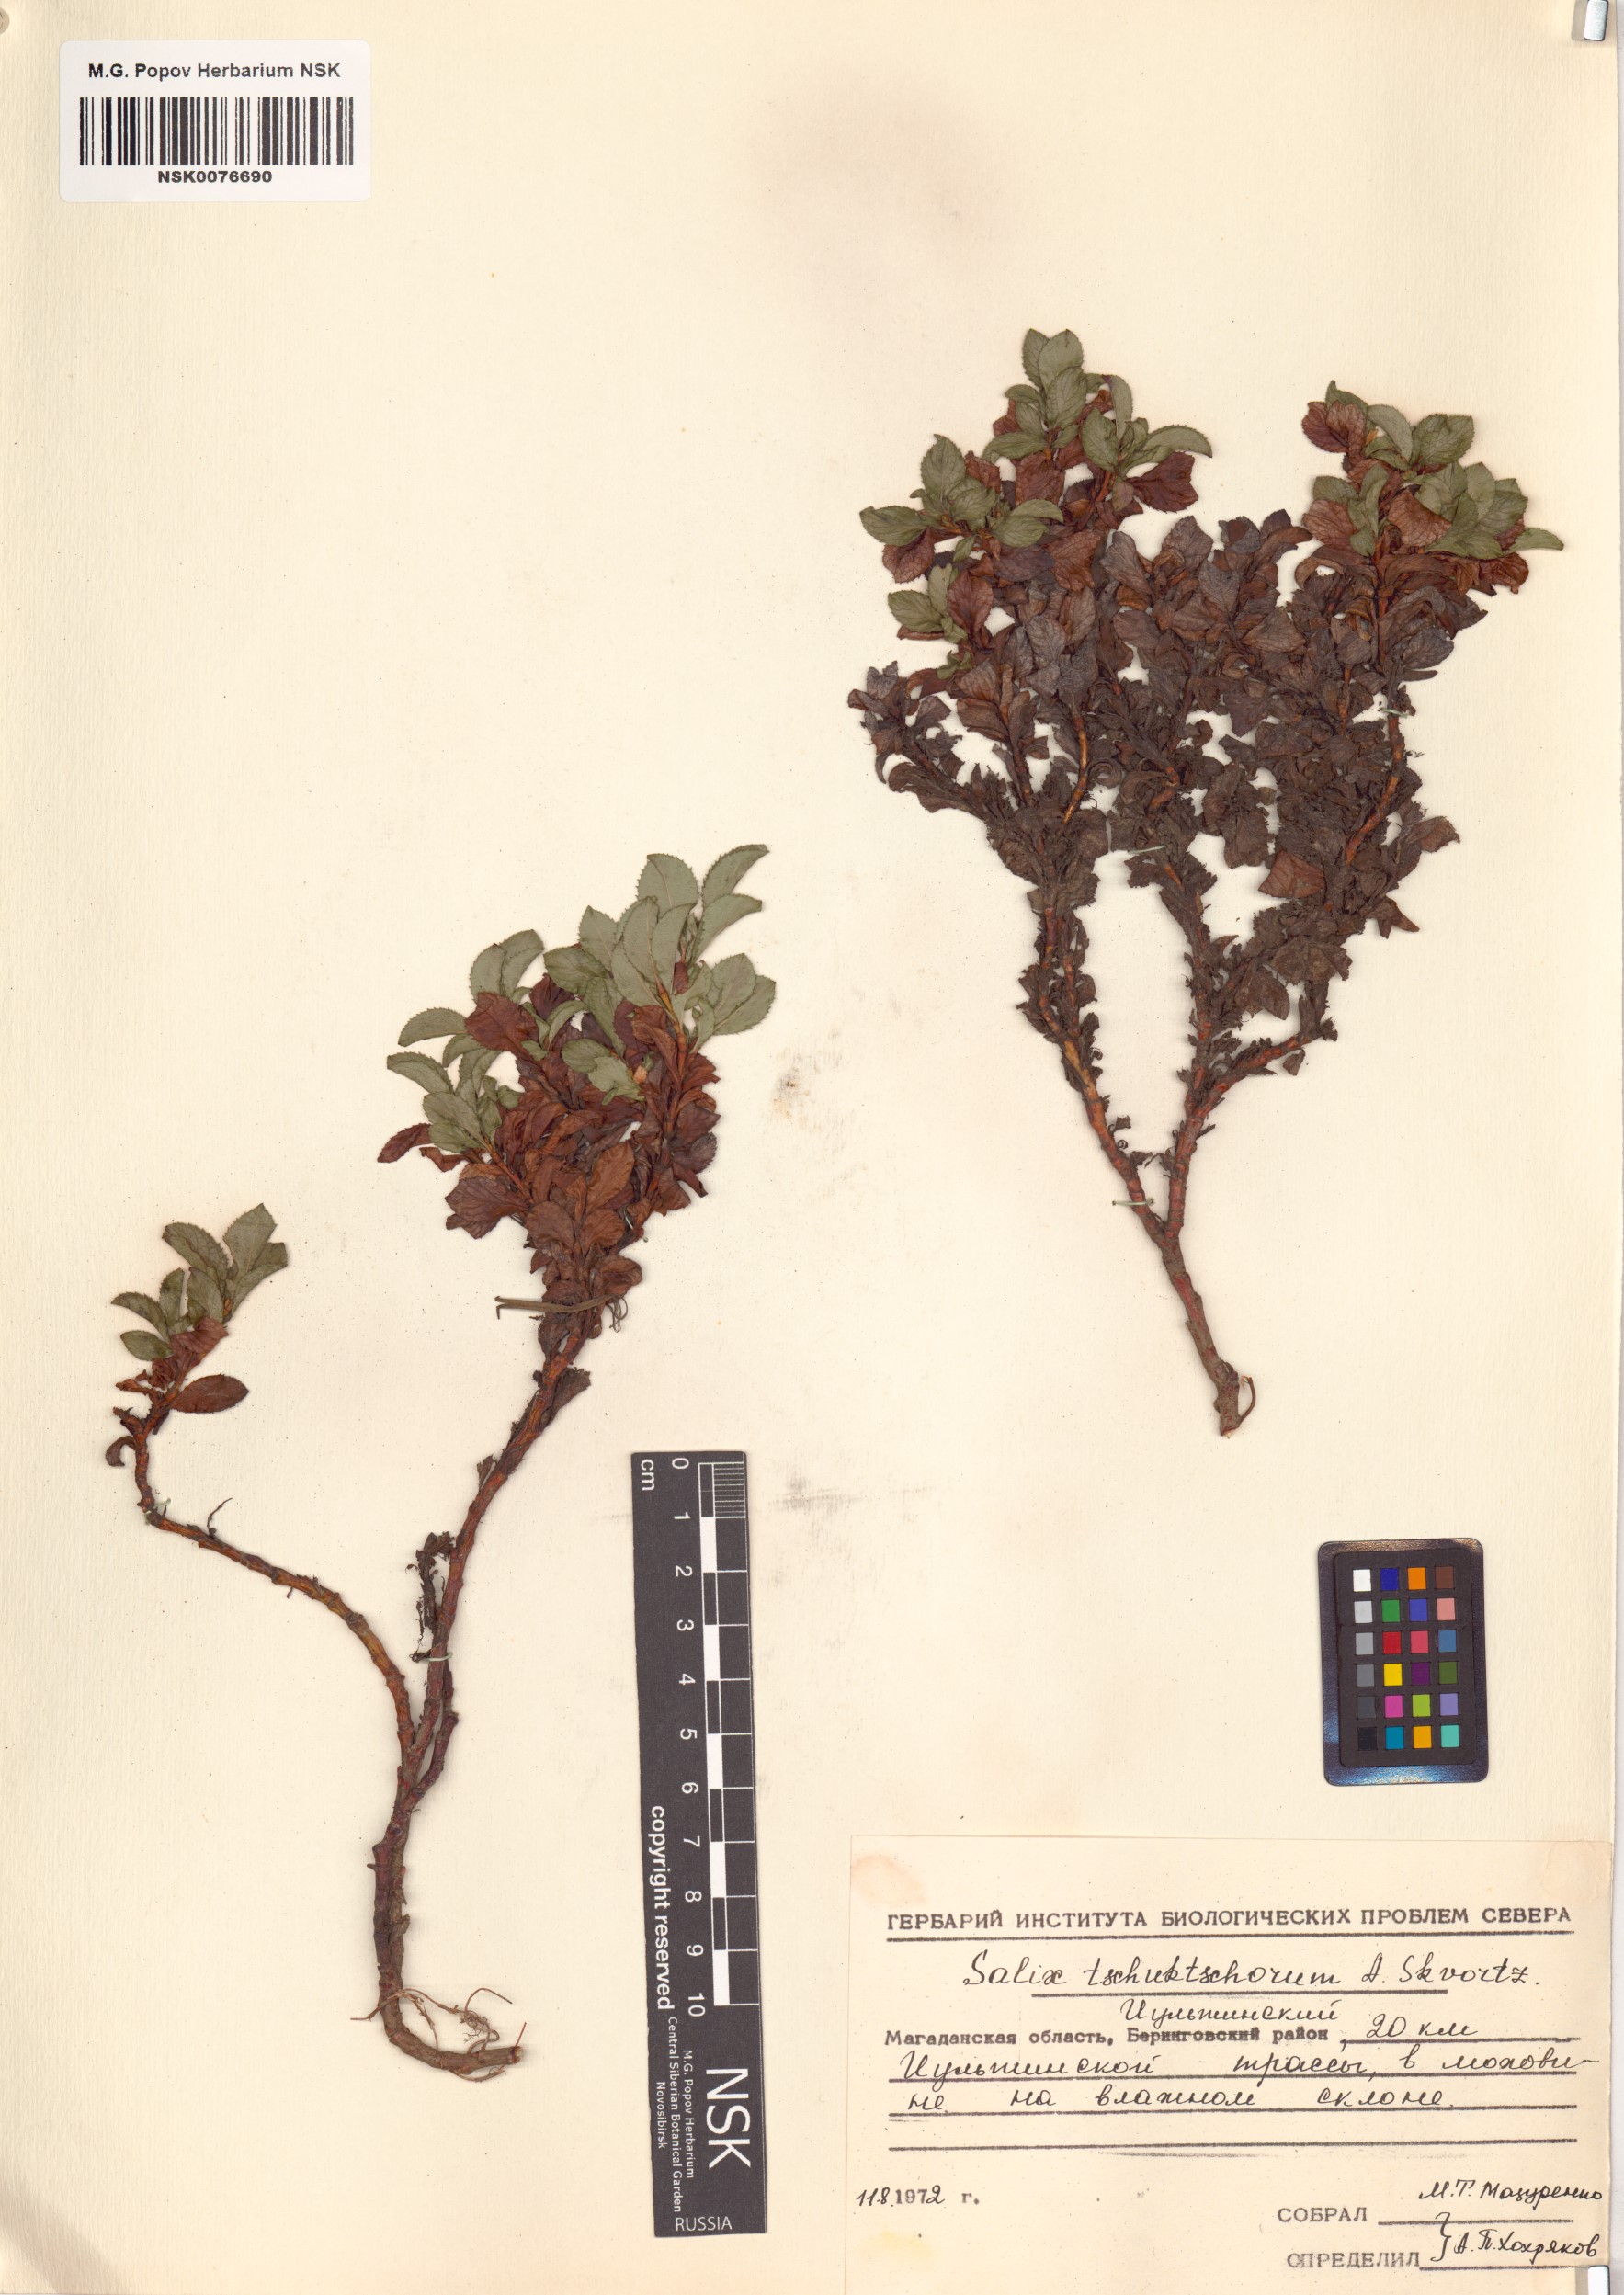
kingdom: Plantae
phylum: Tracheophyta
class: Magnoliopsida
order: Malpighiales
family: Salicaceae
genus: Salix
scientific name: Salix tschuktschorum
